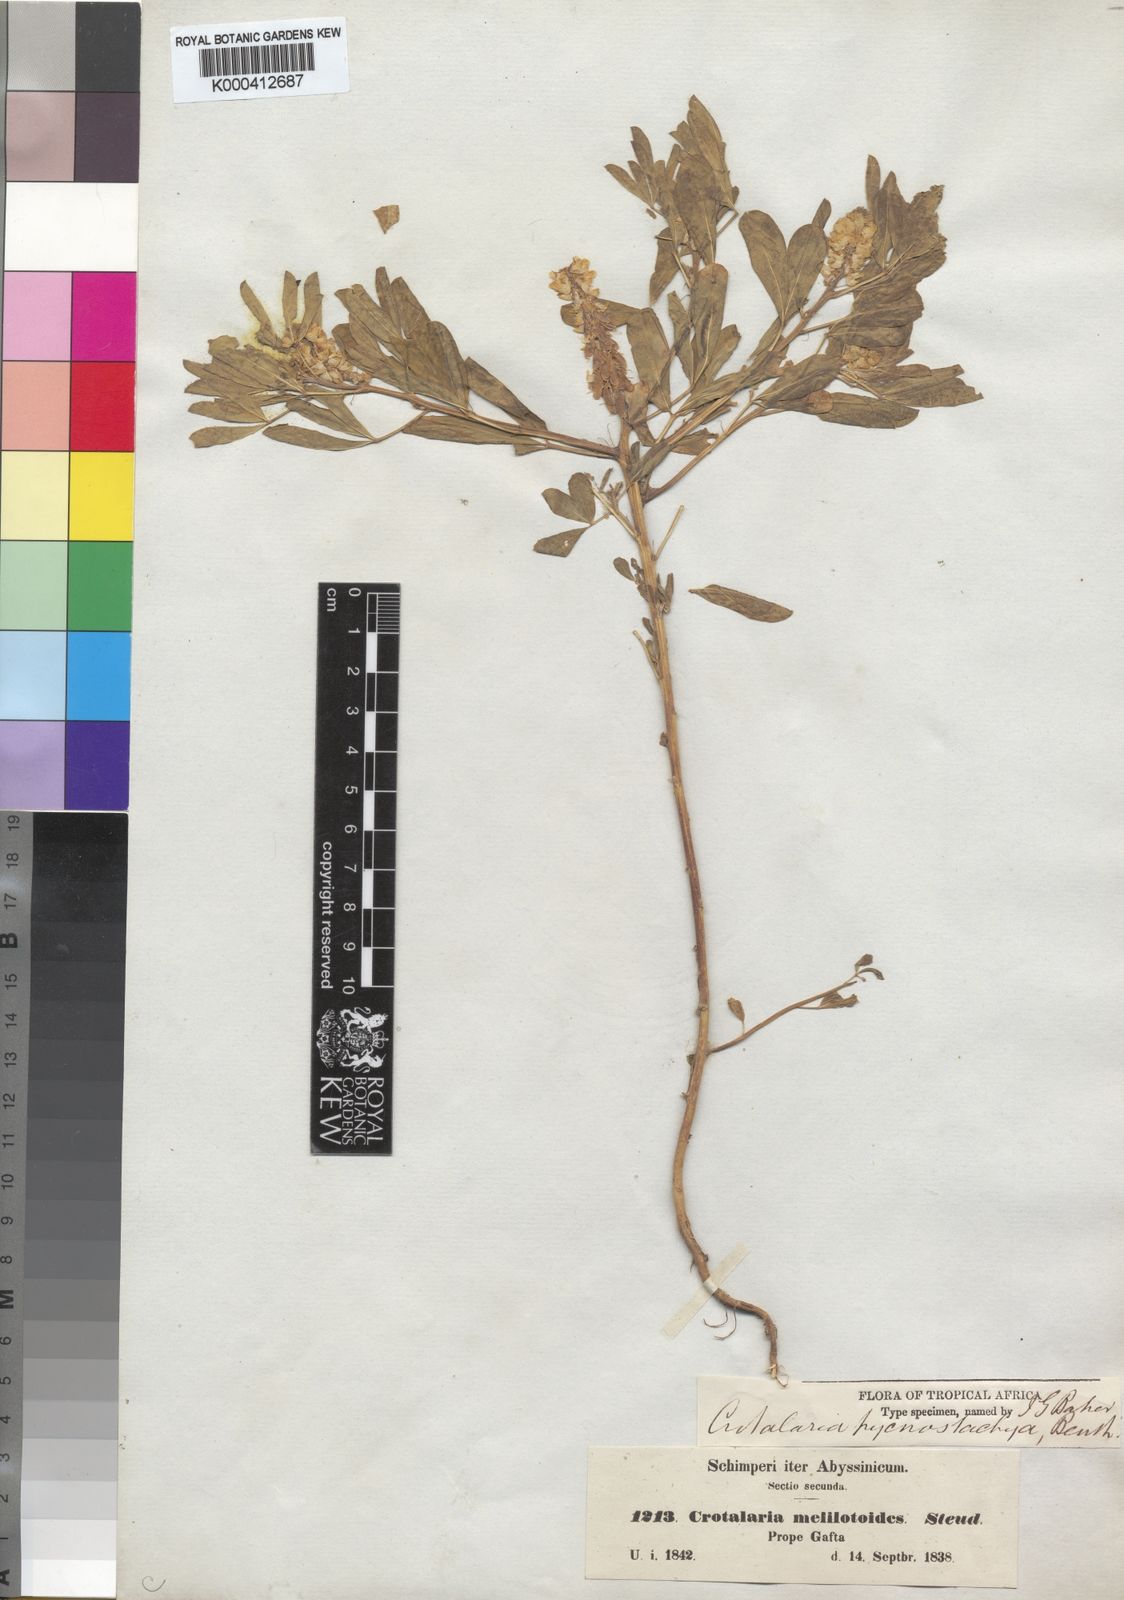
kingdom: Plantae
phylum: Tracheophyta
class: Magnoliopsida
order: Fabales
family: Fabaceae
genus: Crotalaria
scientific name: Crotalaria pycnostachya
